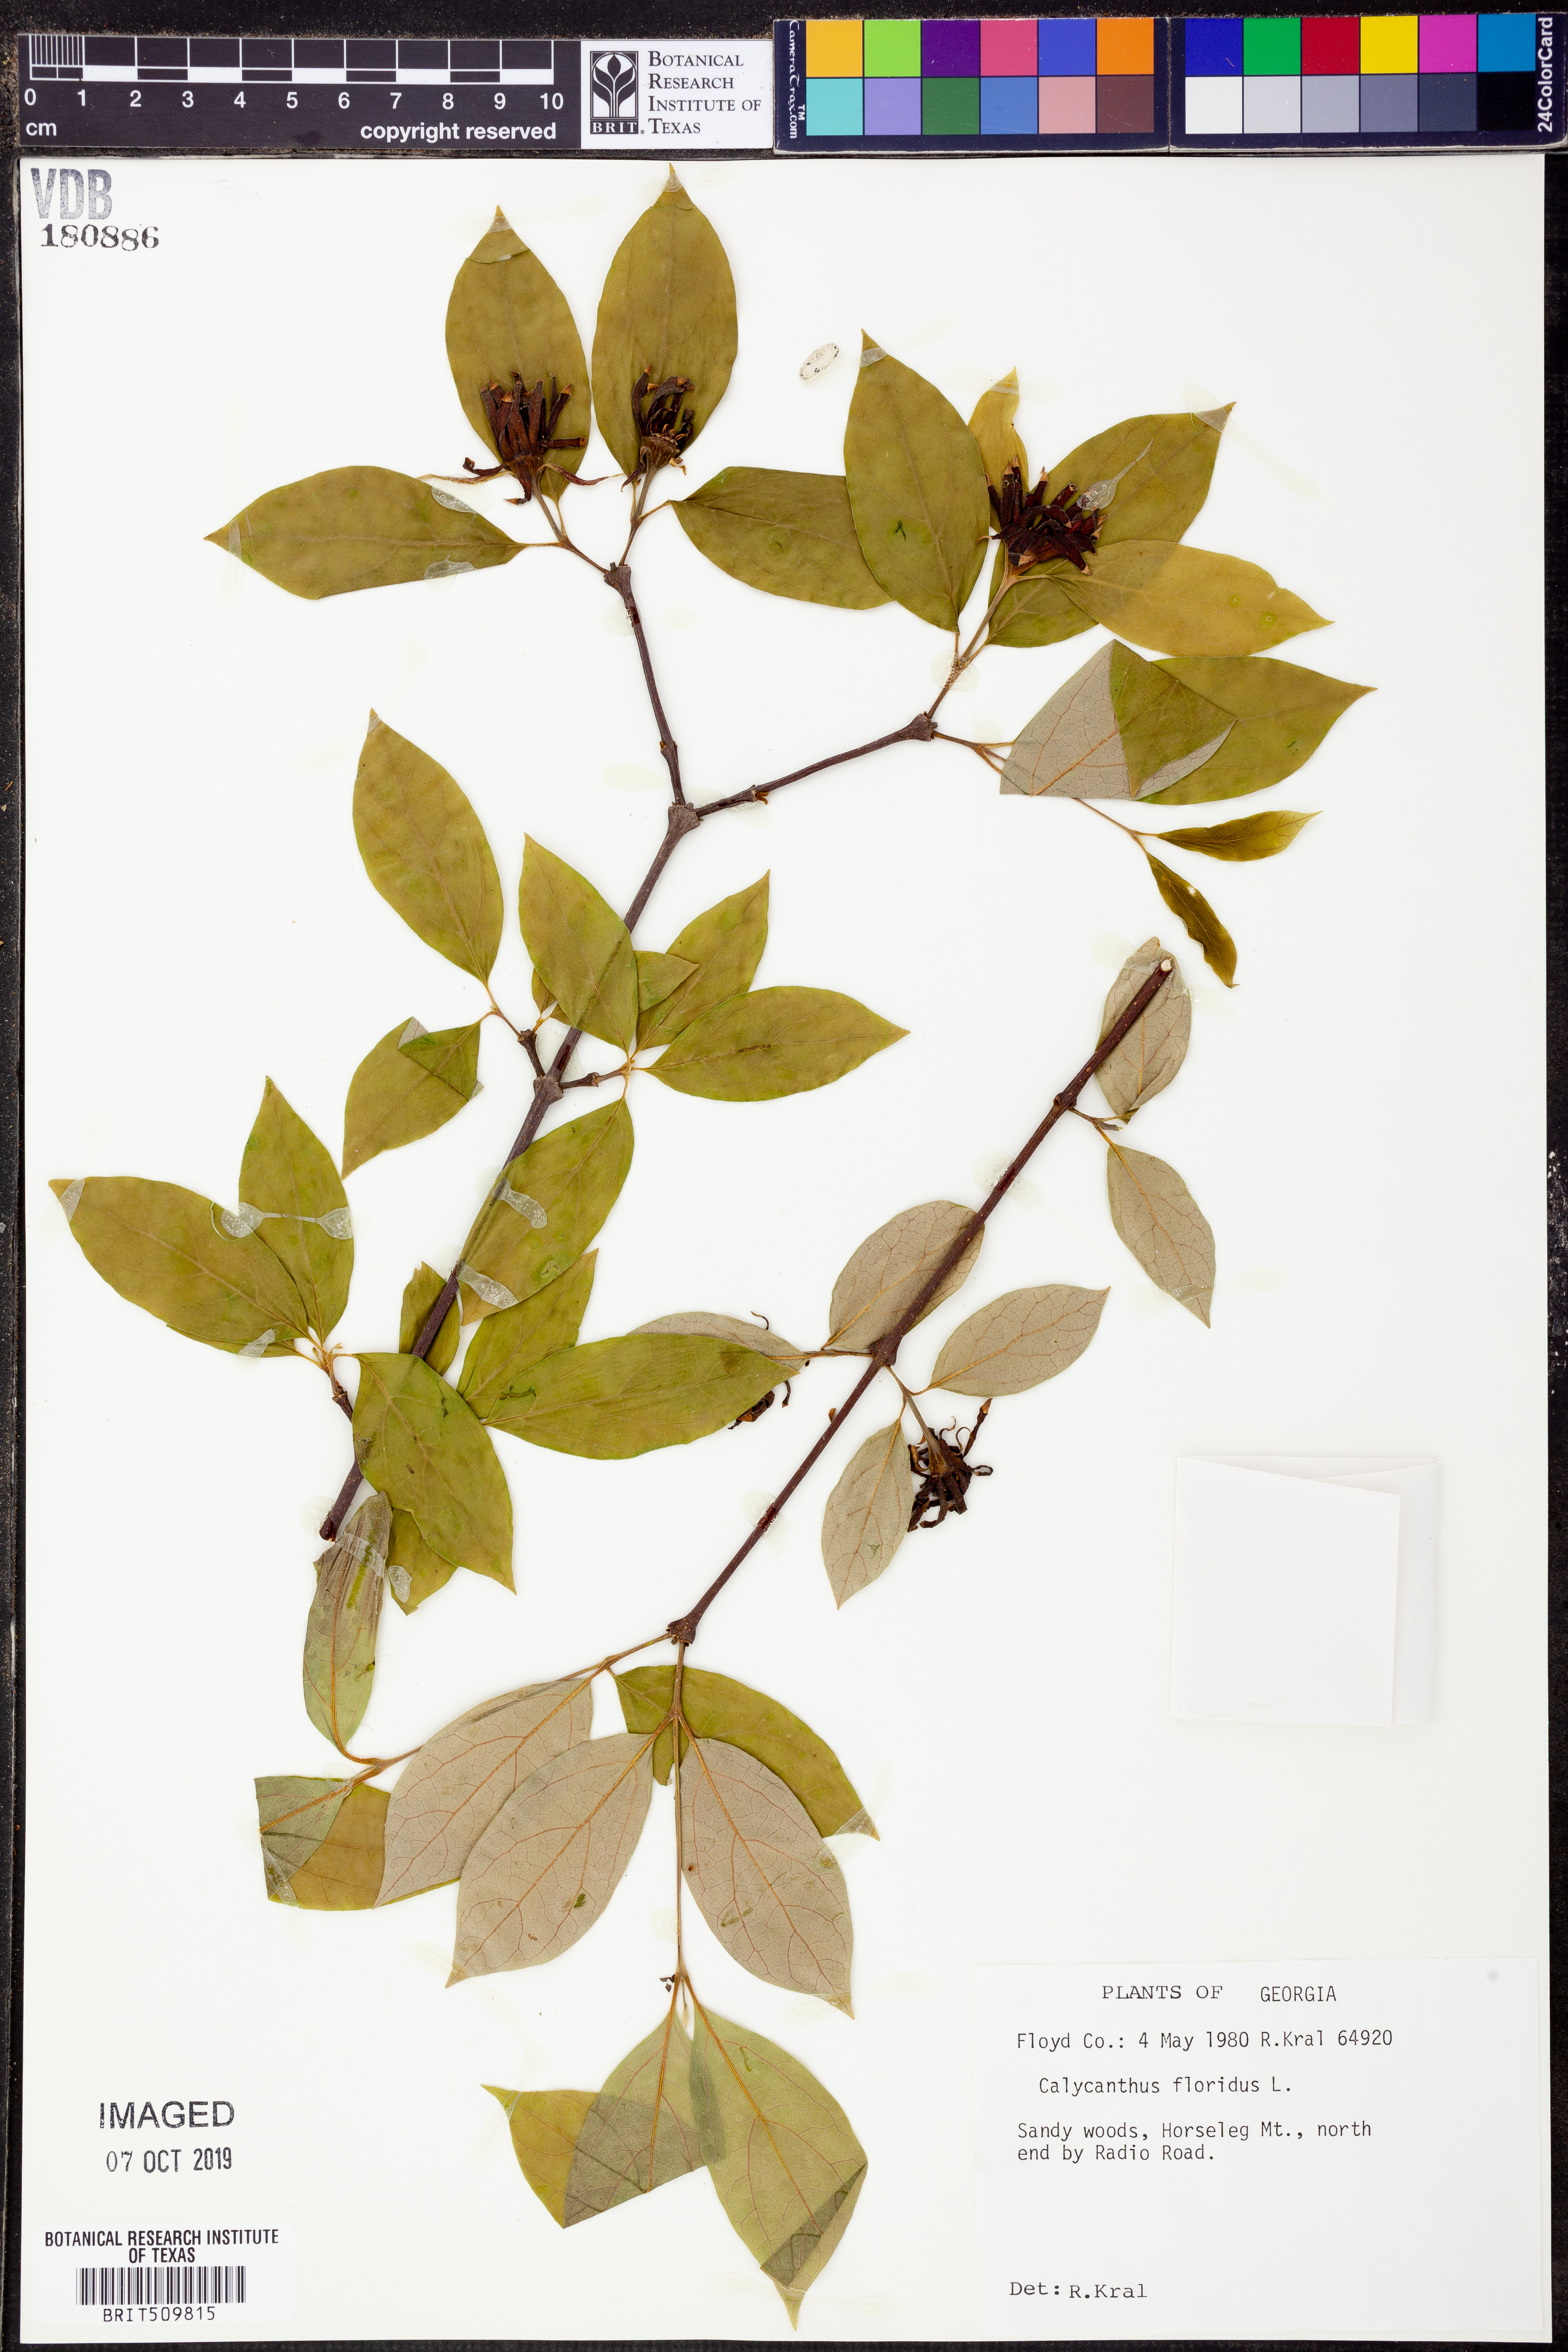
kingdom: Plantae
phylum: Tracheophyta
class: Magnoliopsida
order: Laurales
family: Calycanthaceae
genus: Calycanthus
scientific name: Calycanthus floridus
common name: Carolina-allspice
